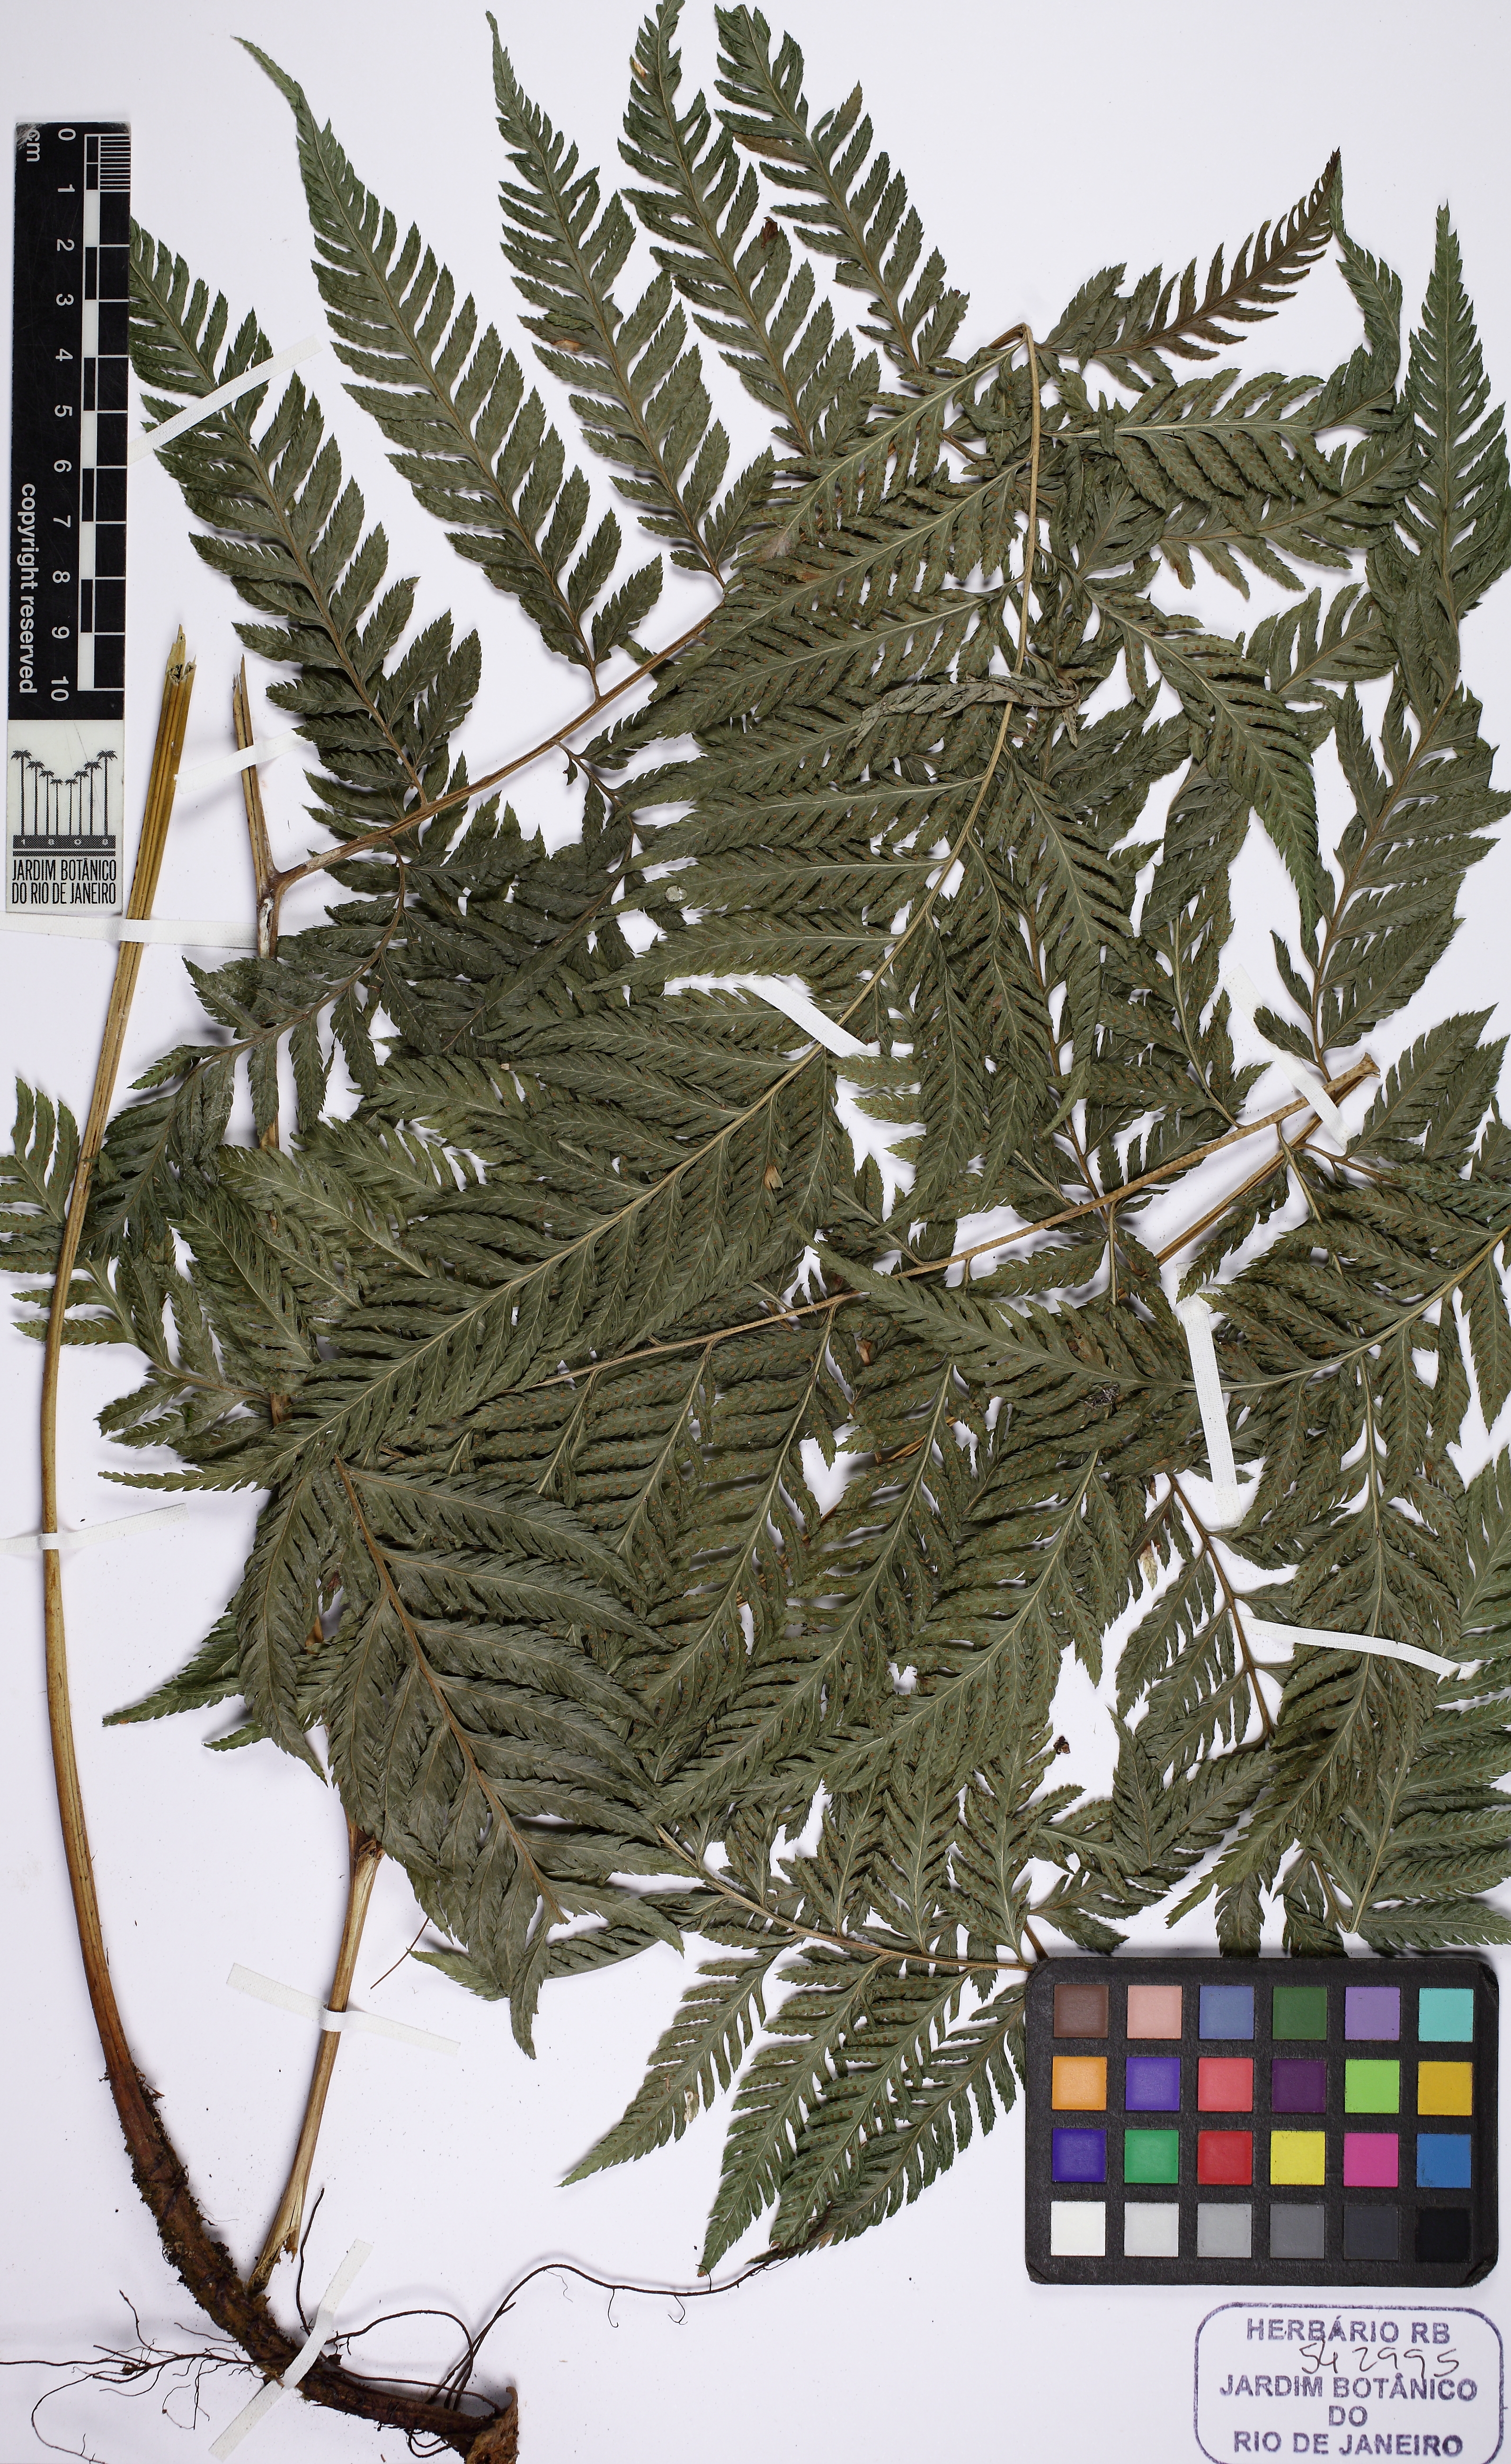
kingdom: Plantae
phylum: Tracheophyta
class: Polypodiopsida
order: Polypodiales
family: Dryopteridaceae
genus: Parapolystichum
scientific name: Parapolystichum effusum
